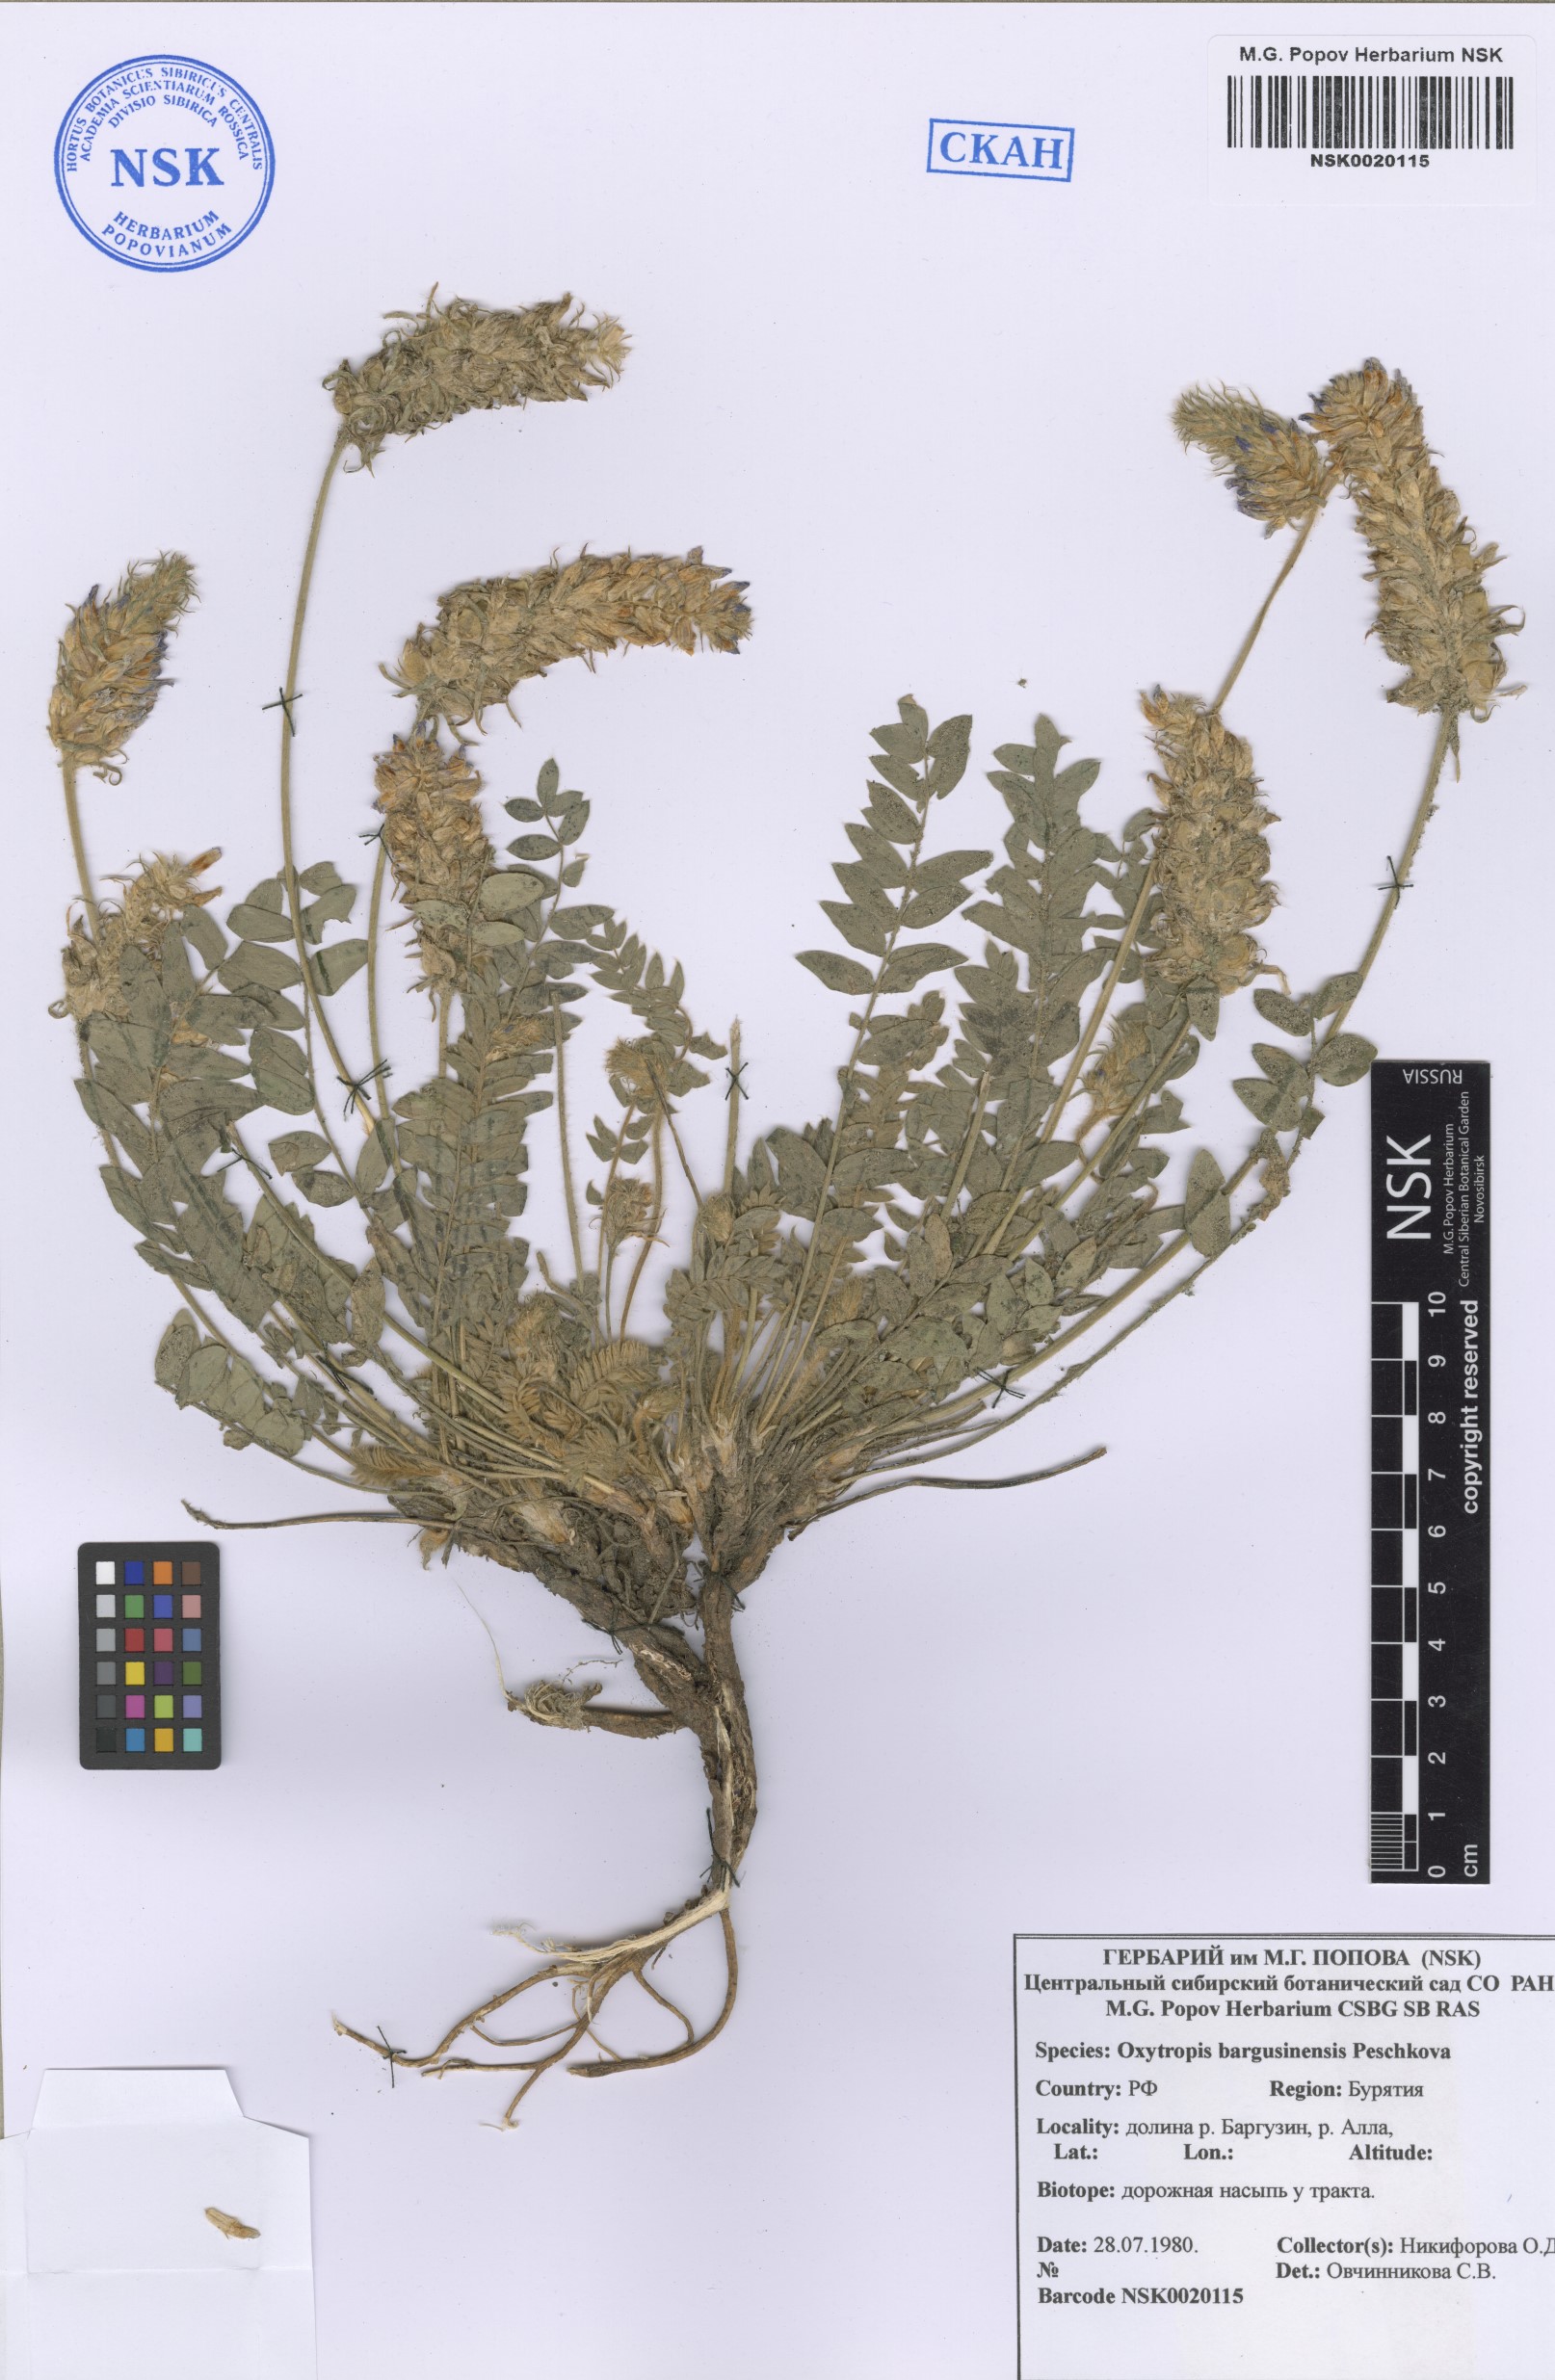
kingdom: Plantae
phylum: Tracheophyta
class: Magnoliopsida
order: Fabales
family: Fabaceae
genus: Oxytropis
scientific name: Oxytropis bargusinensis
